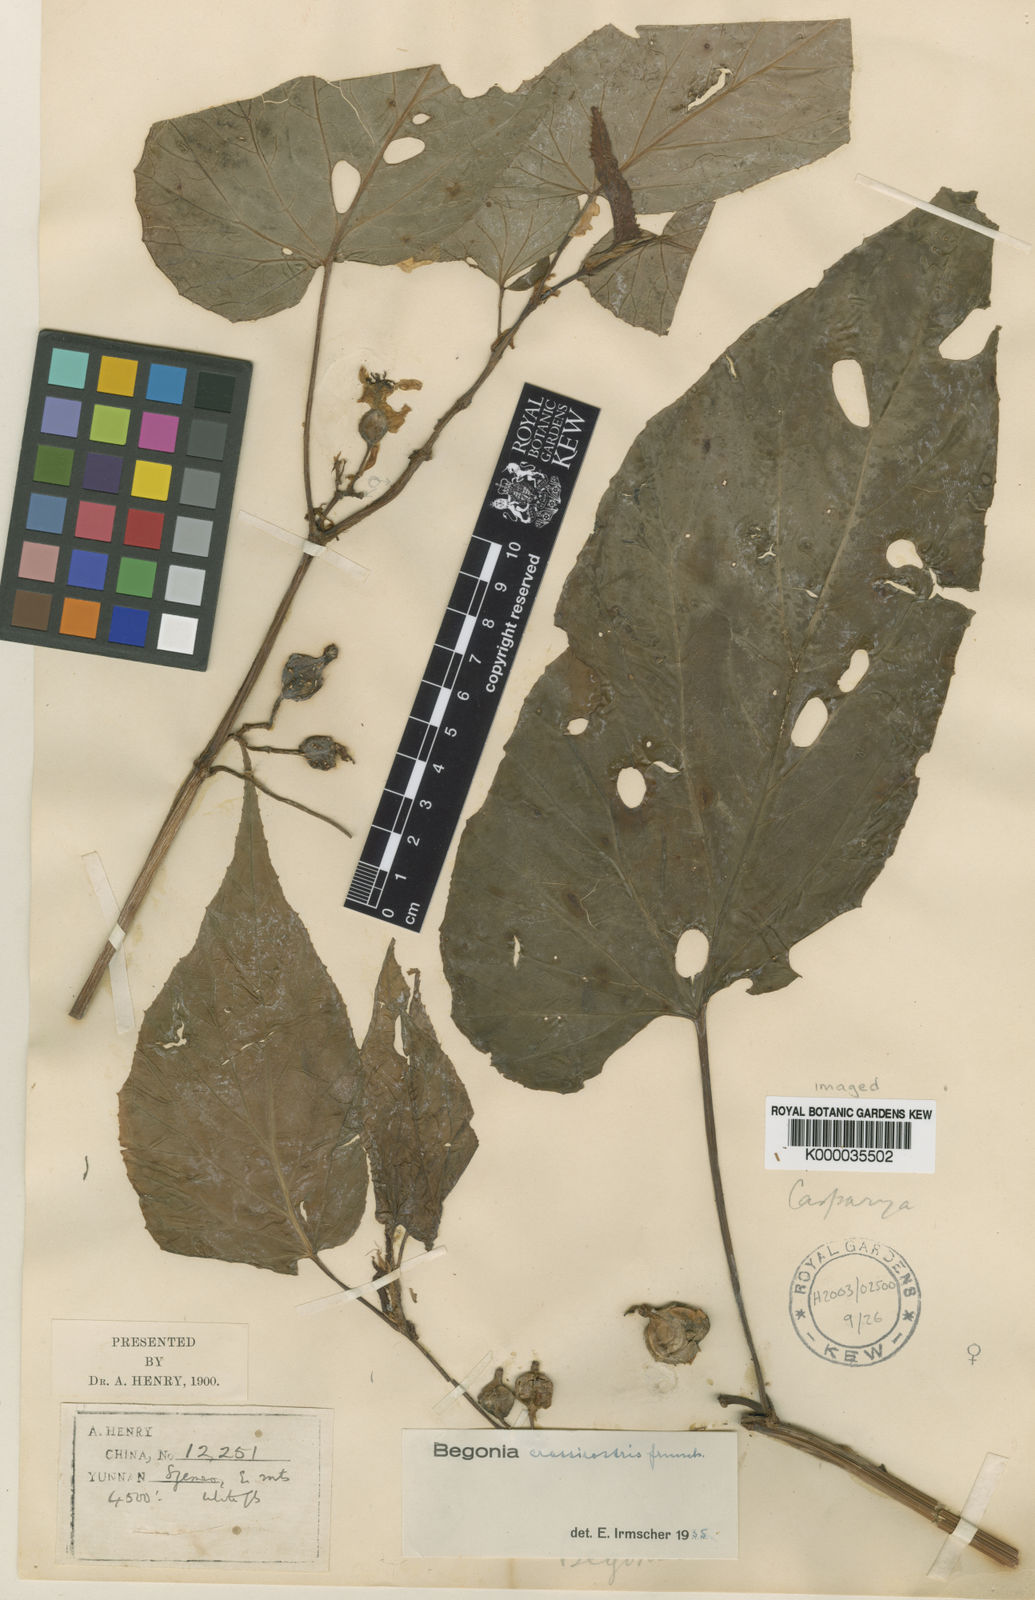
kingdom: Plantae
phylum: Tracheophyta
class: Magnoliopsida
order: Cucurbitales
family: Begoniaceae
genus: Begonia
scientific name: Begonia longifolia
